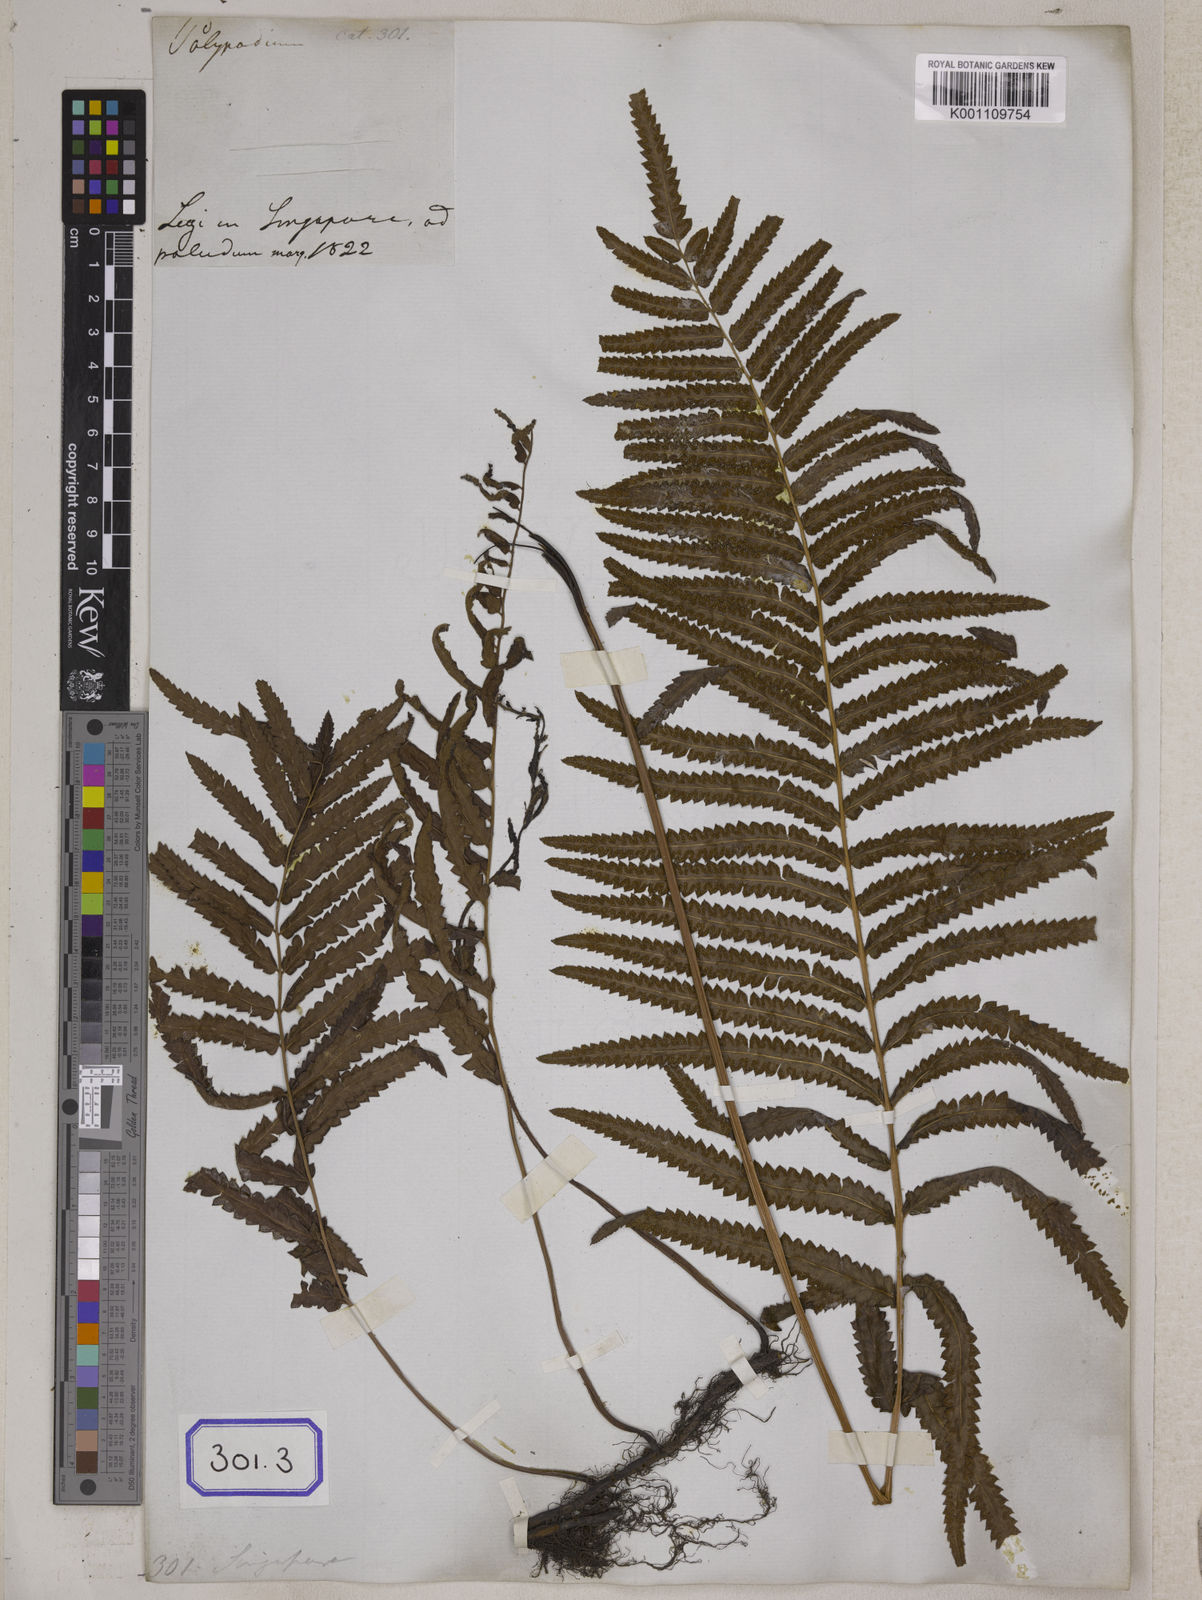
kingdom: Plantae
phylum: Tracheophyta
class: Polypodiopsida
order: Polypodiales
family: Thelypteridaceae
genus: Cyclosorus
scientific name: Cyclosorus interruptus
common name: Neke fern
